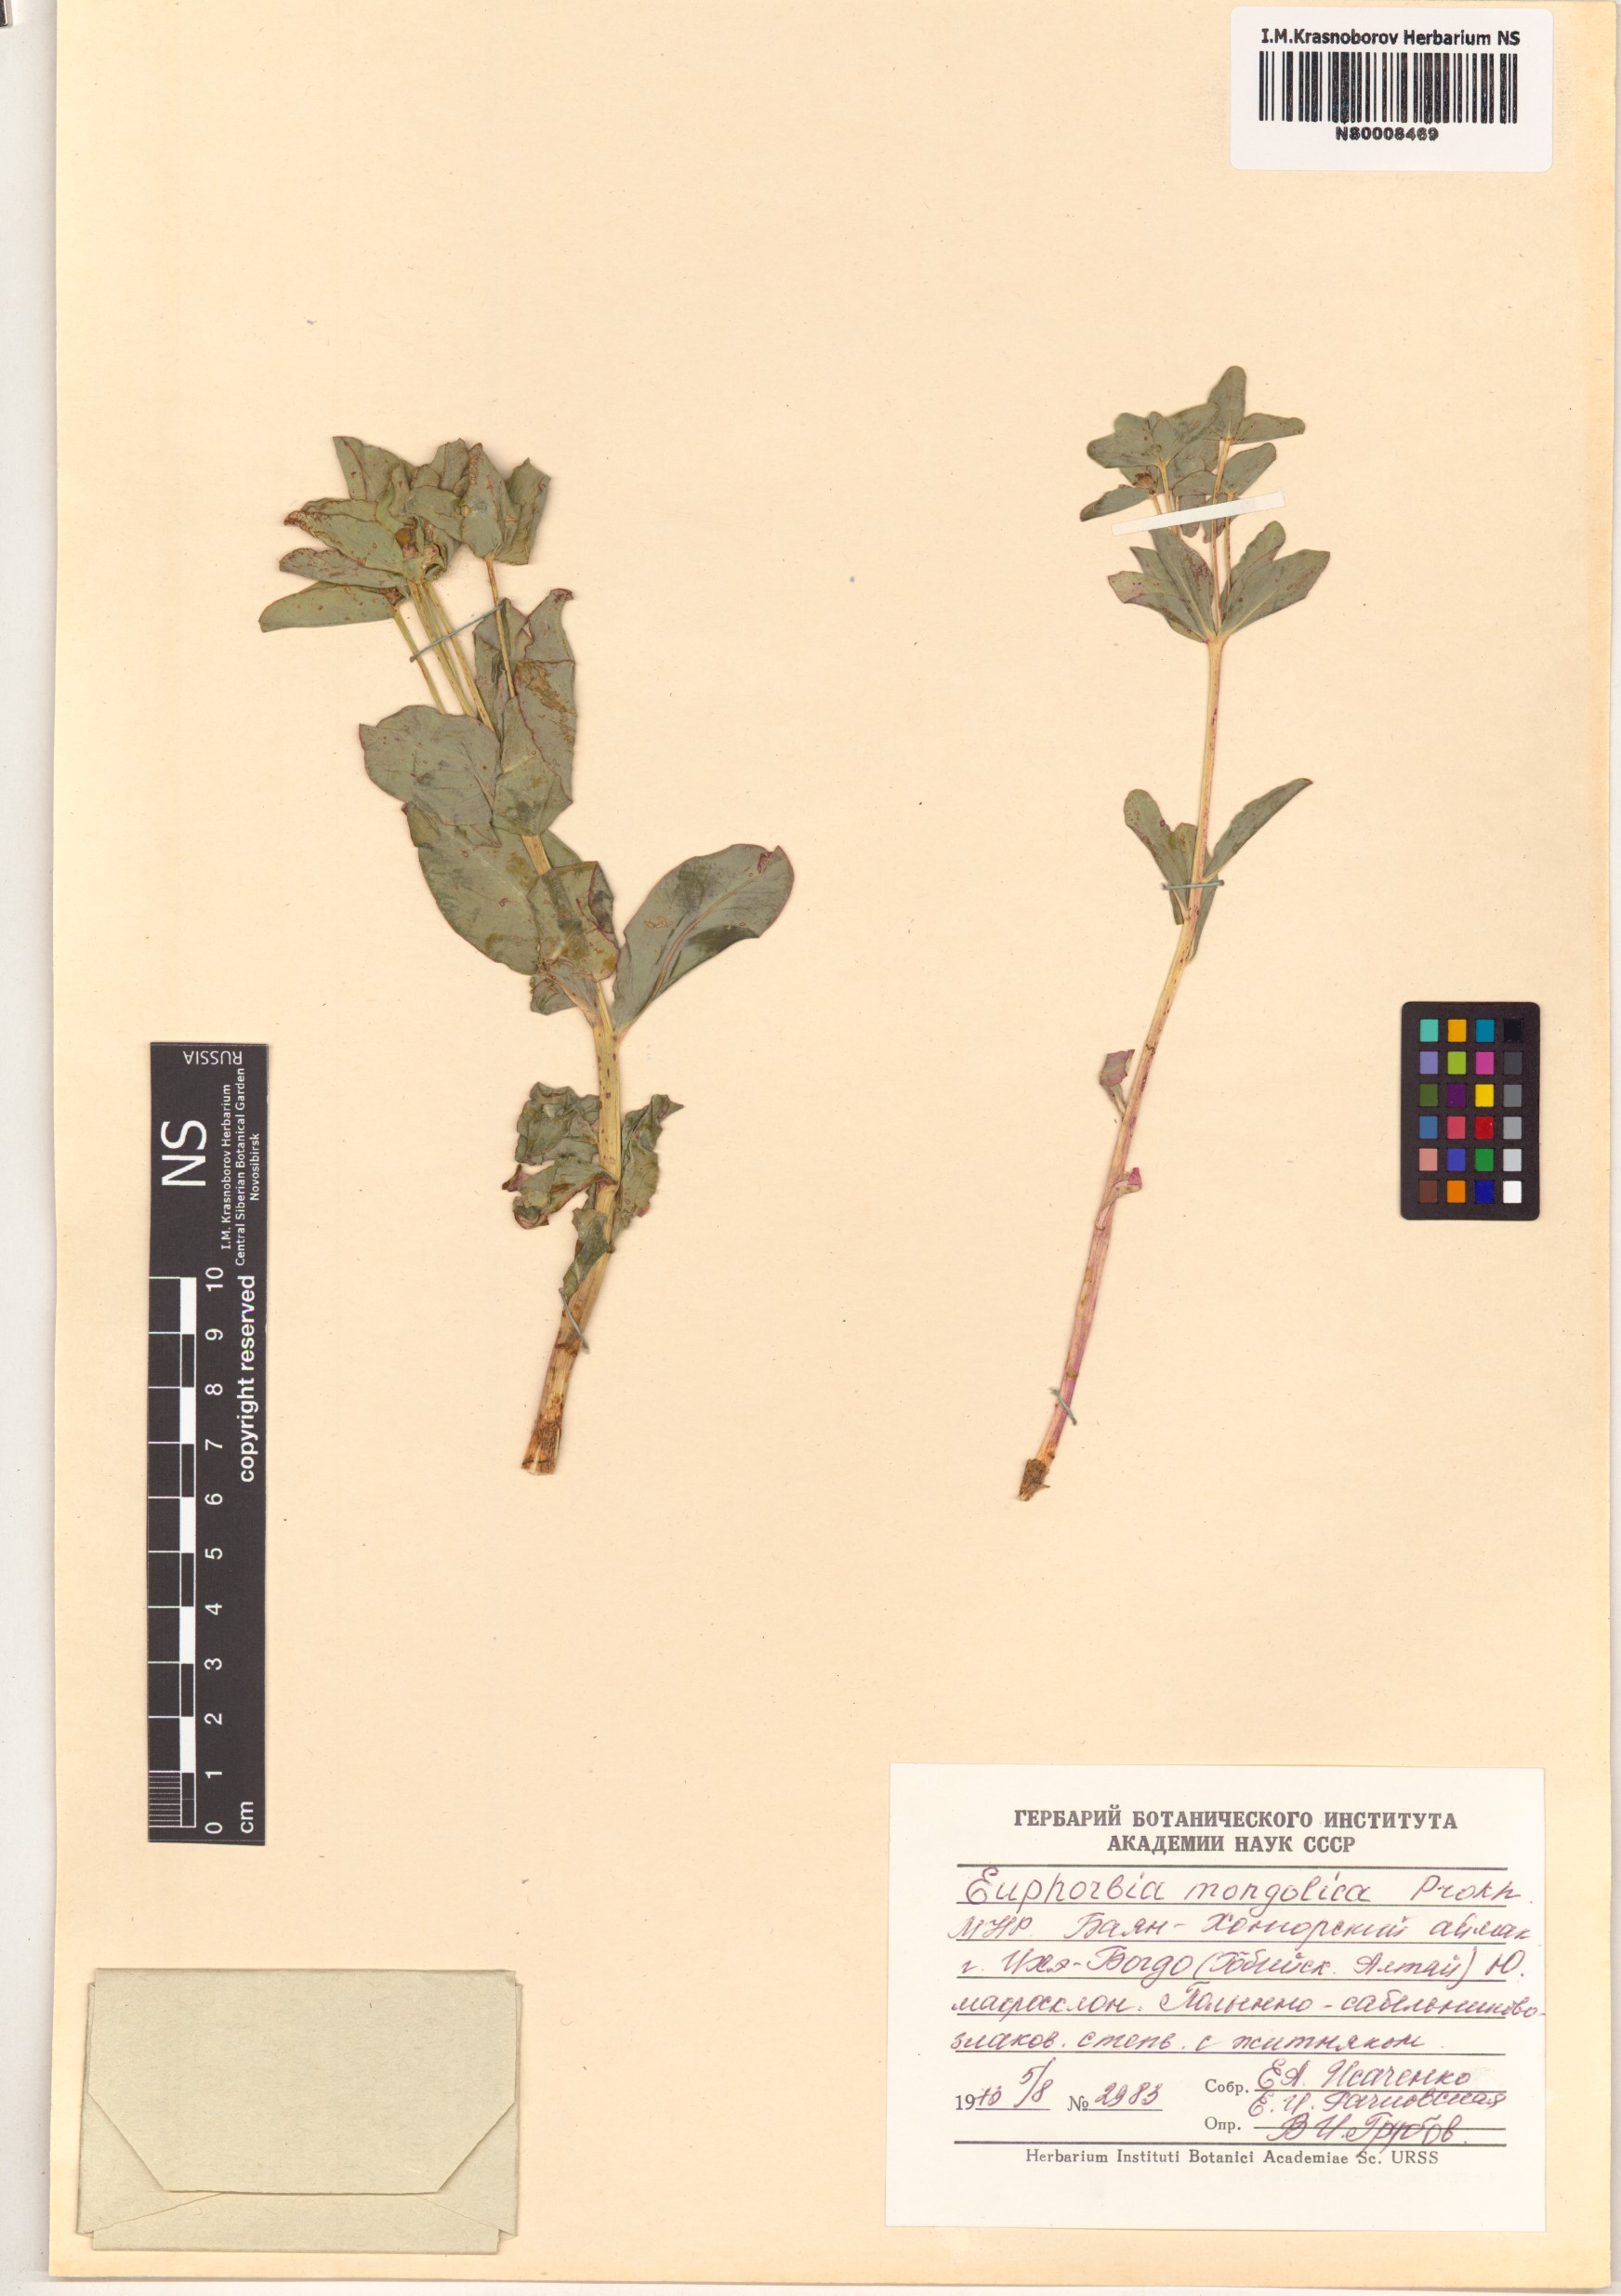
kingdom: Plantae
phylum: Tracheophyta
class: Magnoliopsida
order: Malpighiales
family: Euphorbiaceae
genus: Euphorbia
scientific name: Euphorbia mongolica
